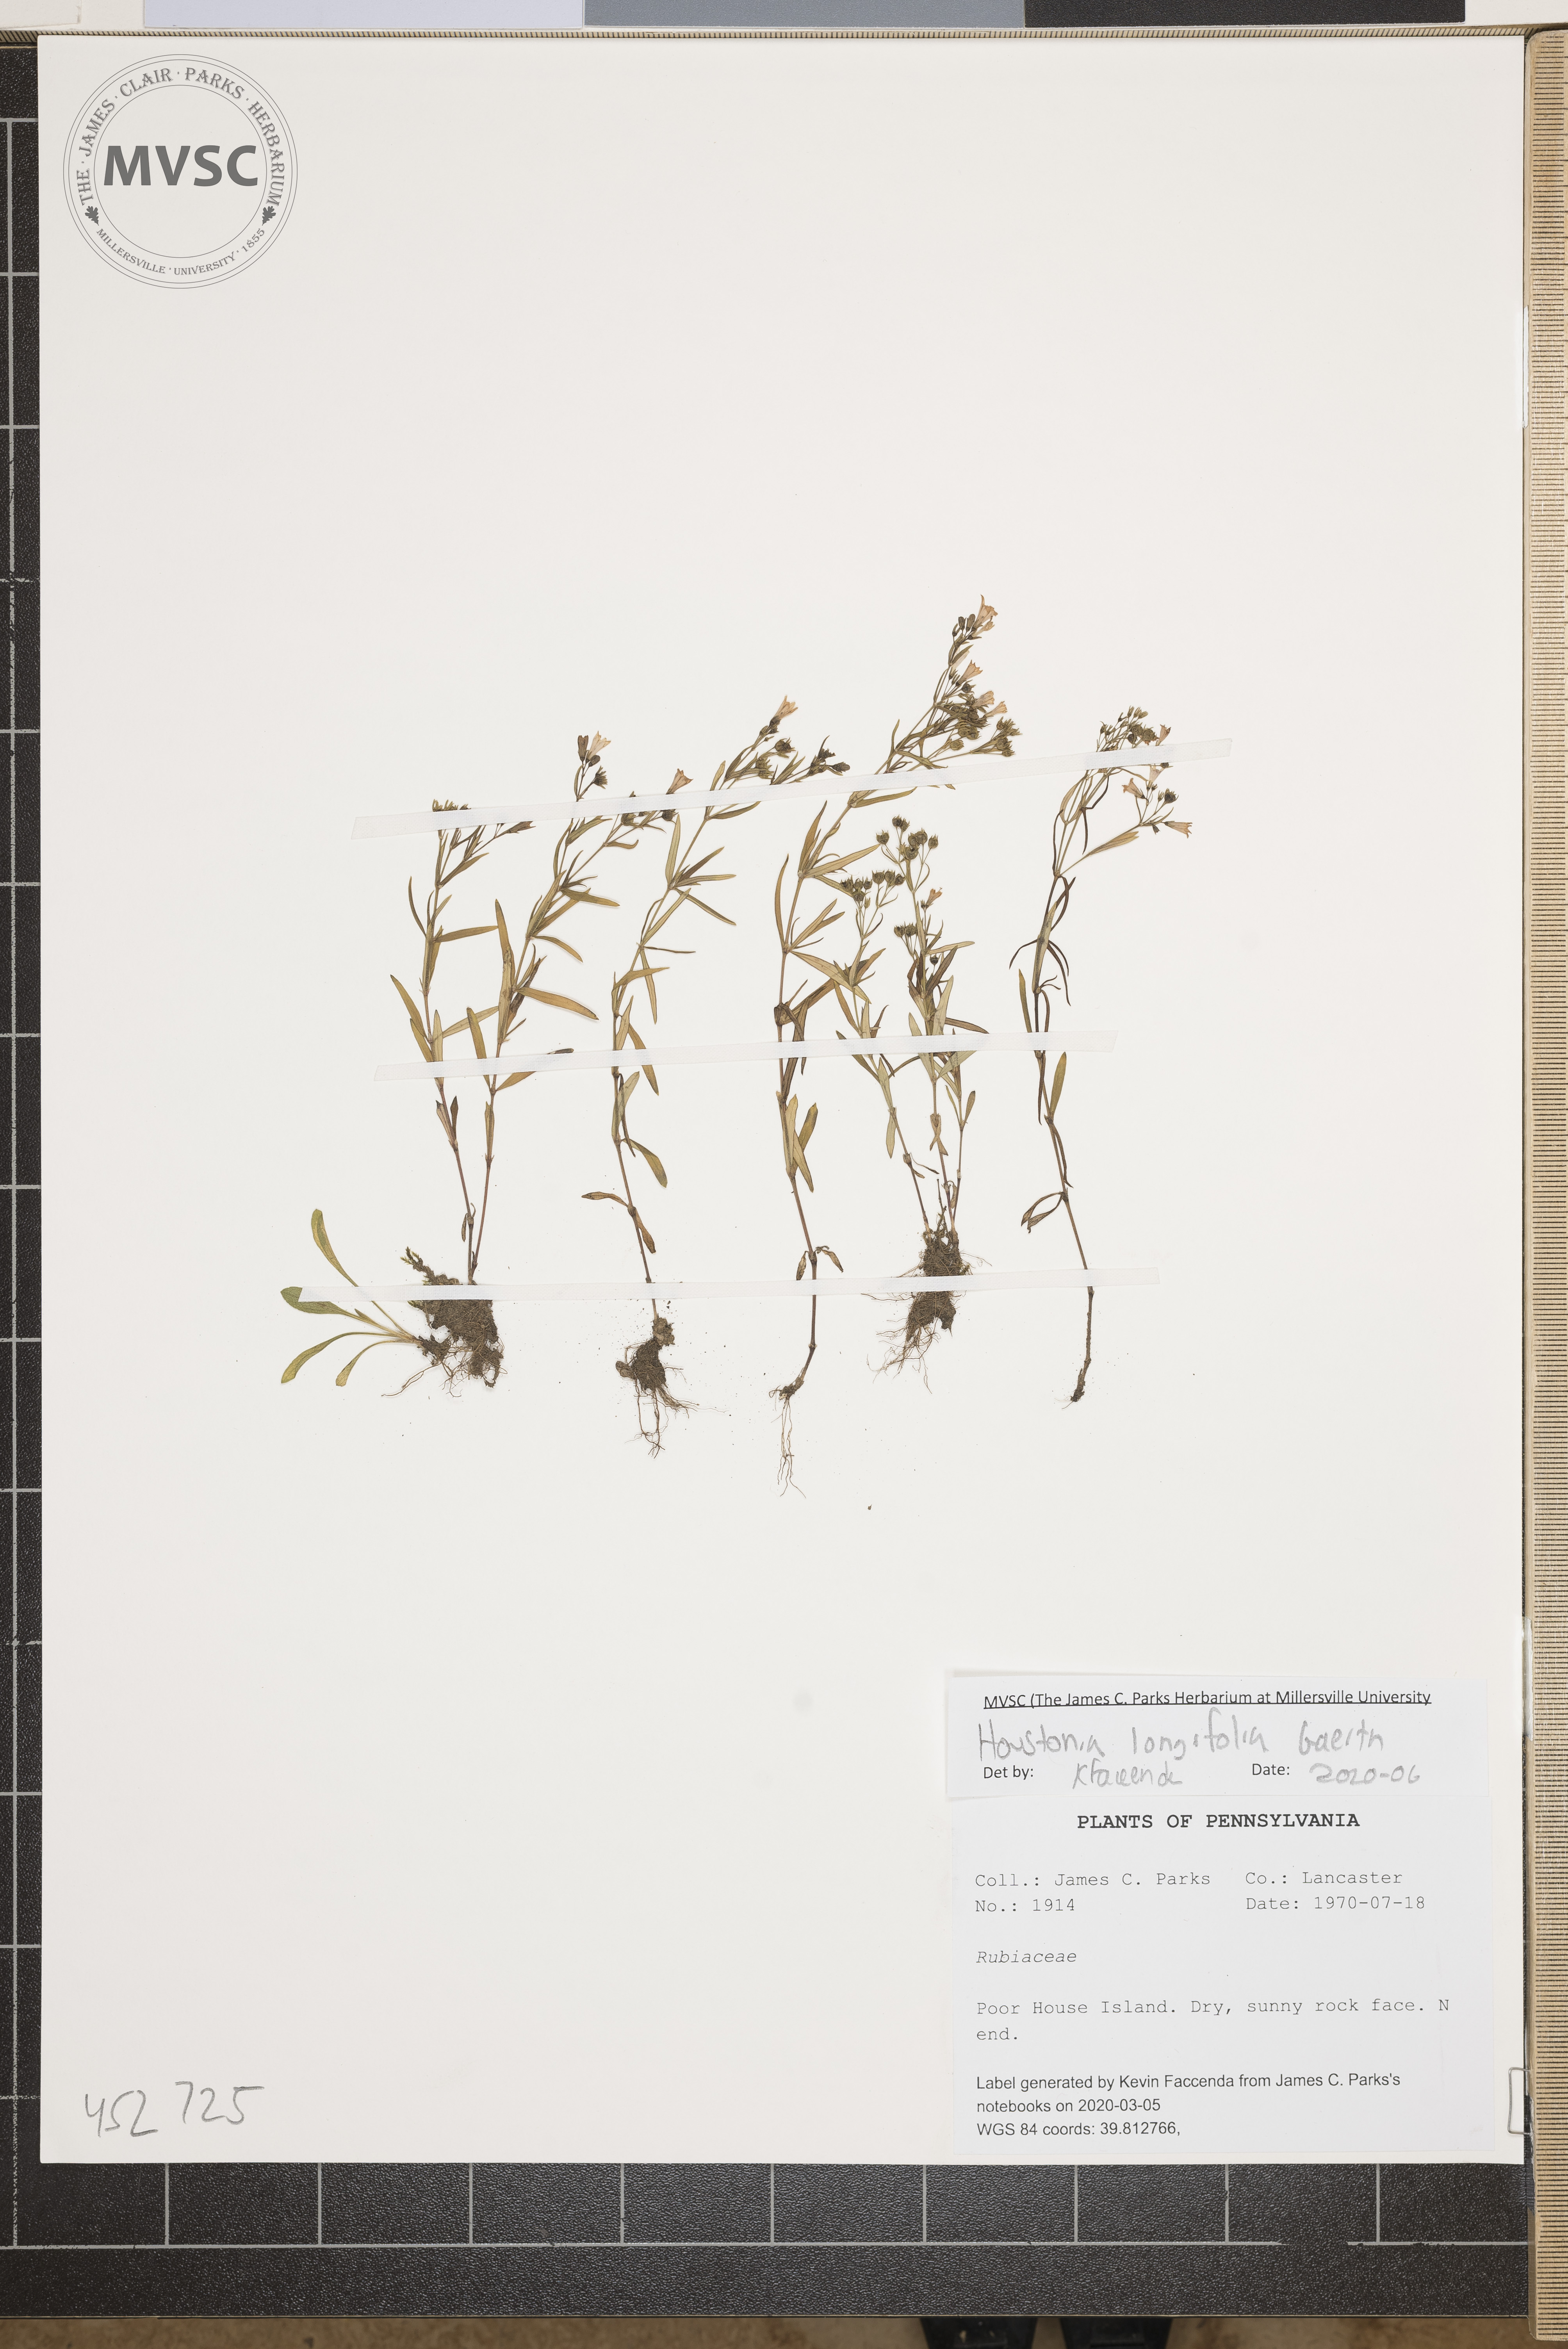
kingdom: Plantae
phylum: Tracheophyta
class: Magnoliopsida
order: Gentianales
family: Rubiaceae
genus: Houstonia
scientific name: Houstonia longifolia
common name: Long-leaved bluets
